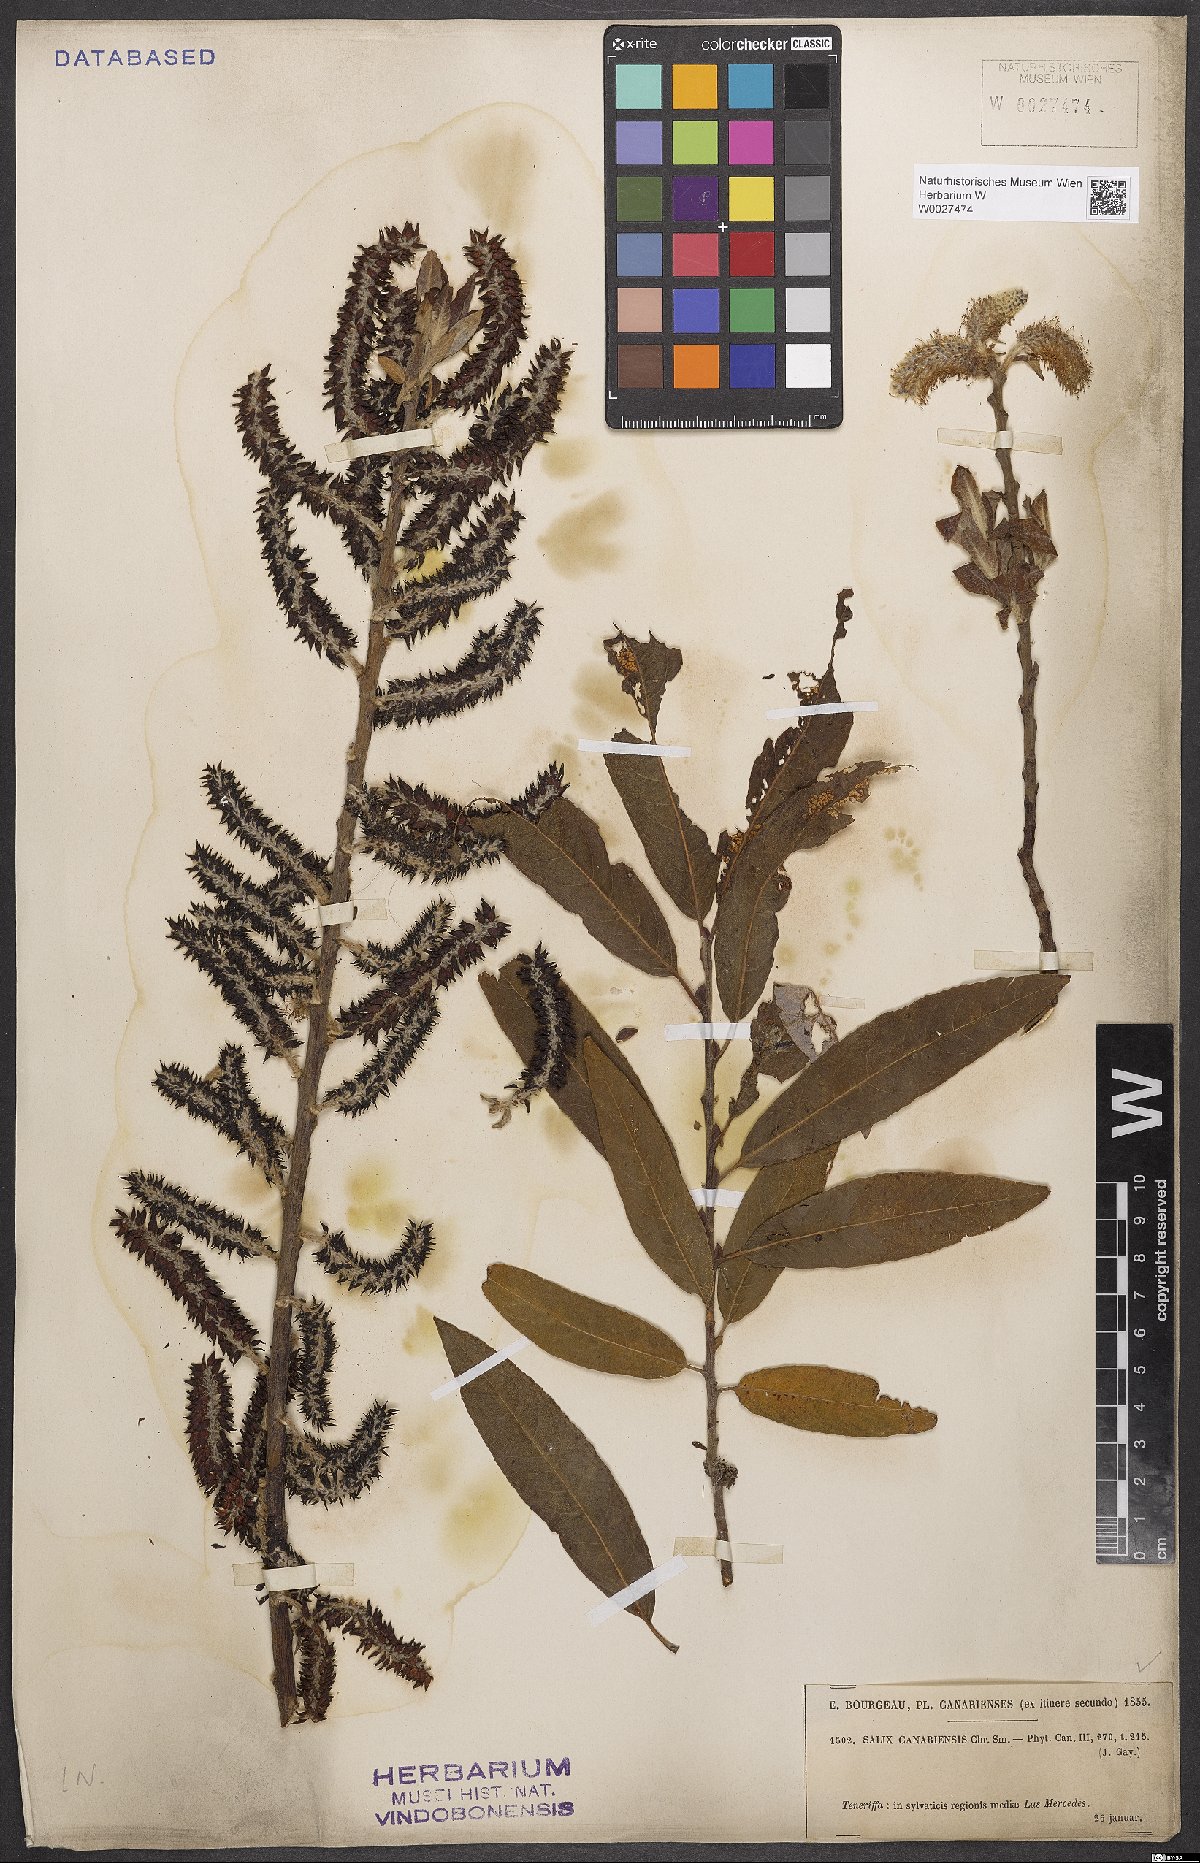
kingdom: Plantae
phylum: Tracheophyta
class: Magnoliopsida
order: Malpighiales
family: Salicaceae
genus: Salix
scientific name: Salix canariensis
